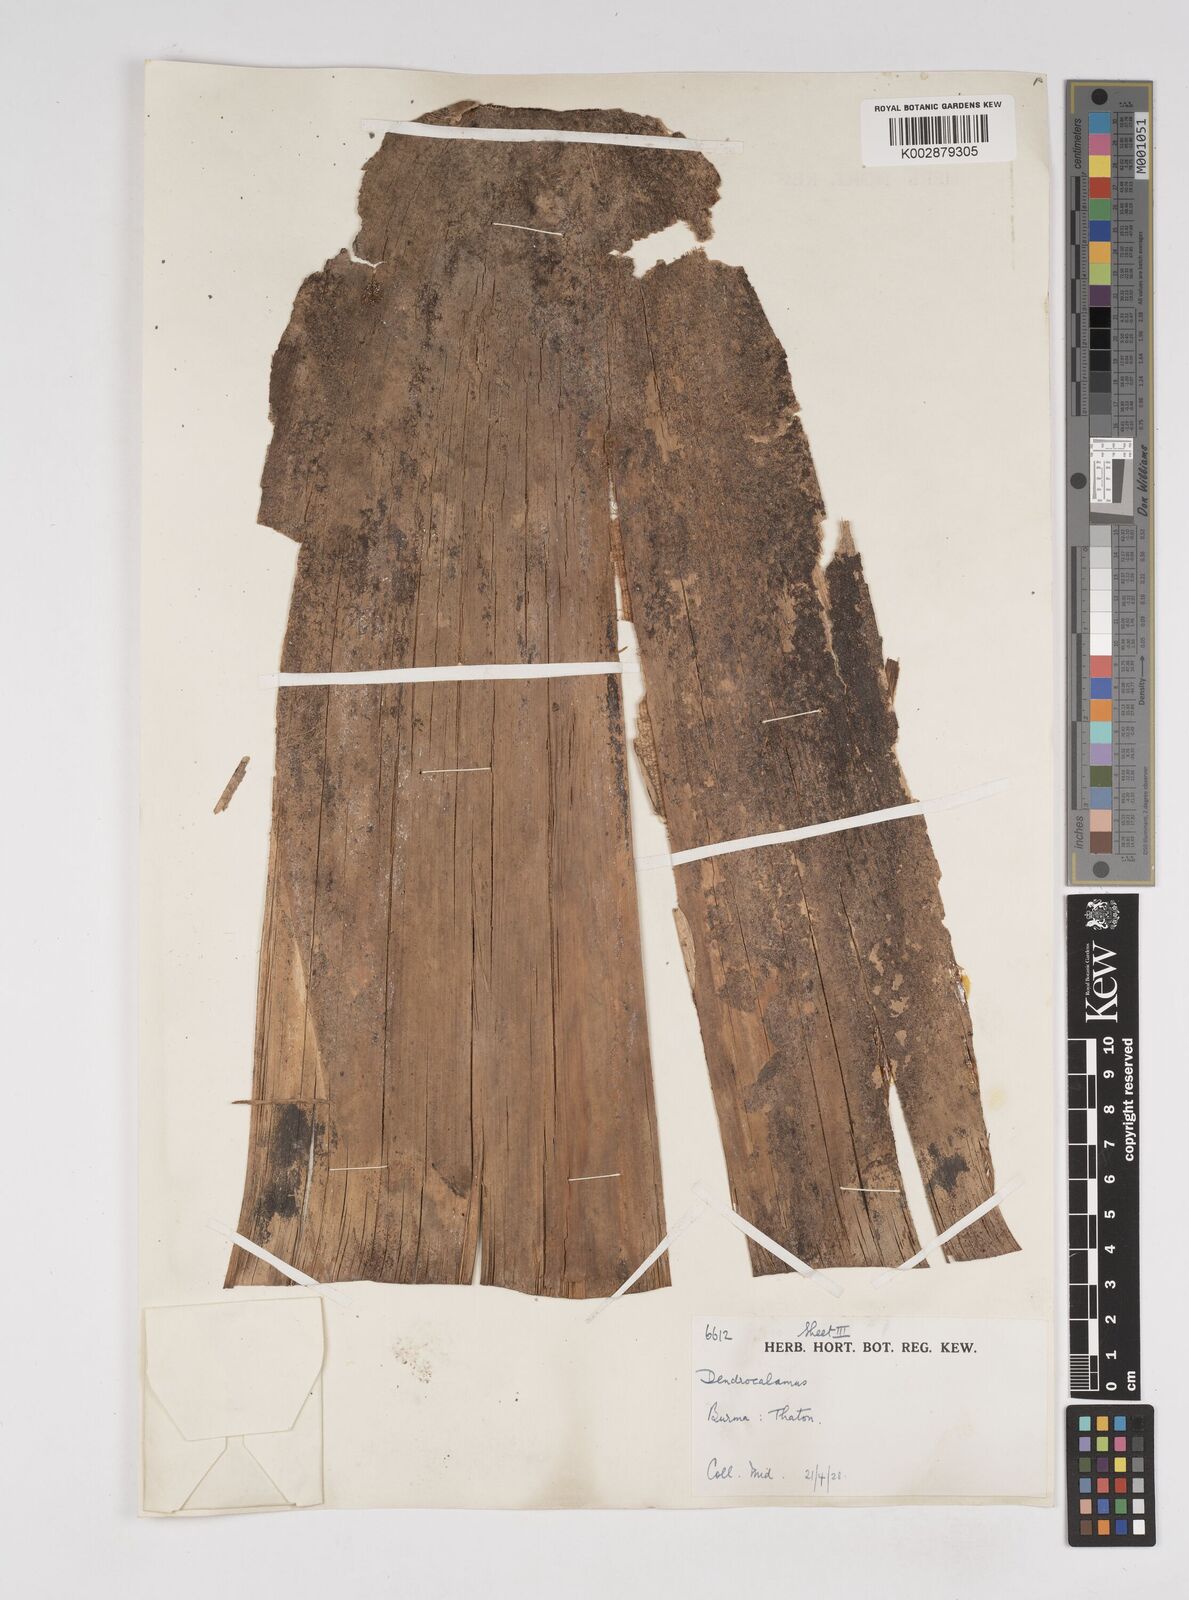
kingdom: Plantae
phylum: Tracheophyta
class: Liliopsida
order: Poales
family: Poaceae
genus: Dendrocalamus
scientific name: Dendrocalamus
